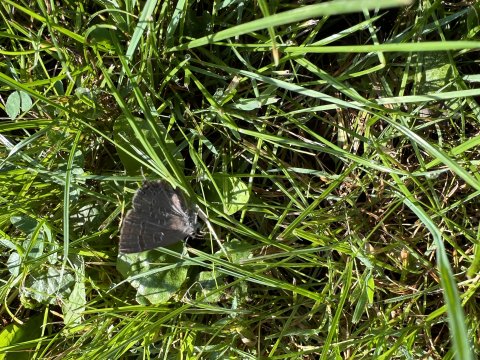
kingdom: Animalia
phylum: Arthropoda
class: Insecta
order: Lepidoptera
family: Lycaenidae
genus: Strymon
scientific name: Strymon caryaevorus
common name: Hickory Hairstreak
